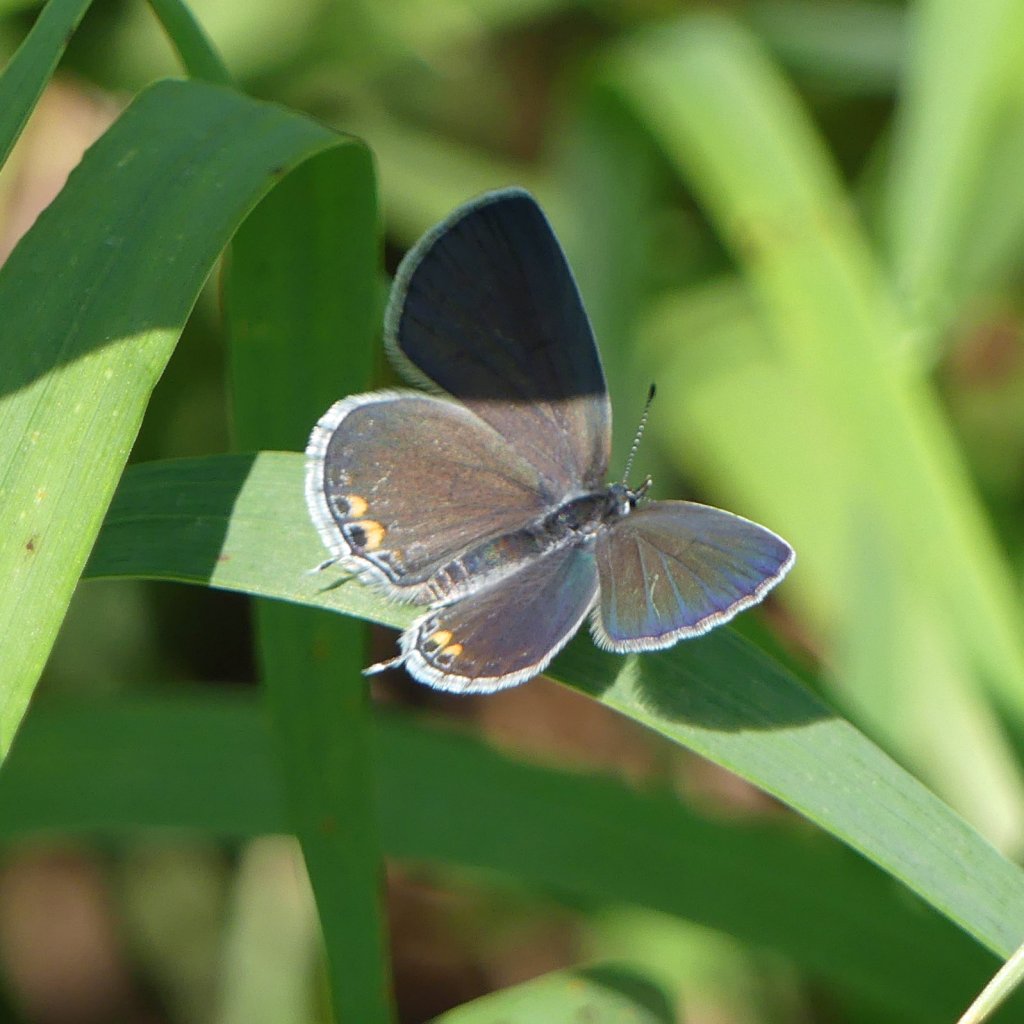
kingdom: Animalia
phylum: Arthropoda
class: Insecta
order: Lepidoptera
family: Lycaenidae
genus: Elkalyce
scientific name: Elkalyce comyntas
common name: Eastern Tailed-Blue
